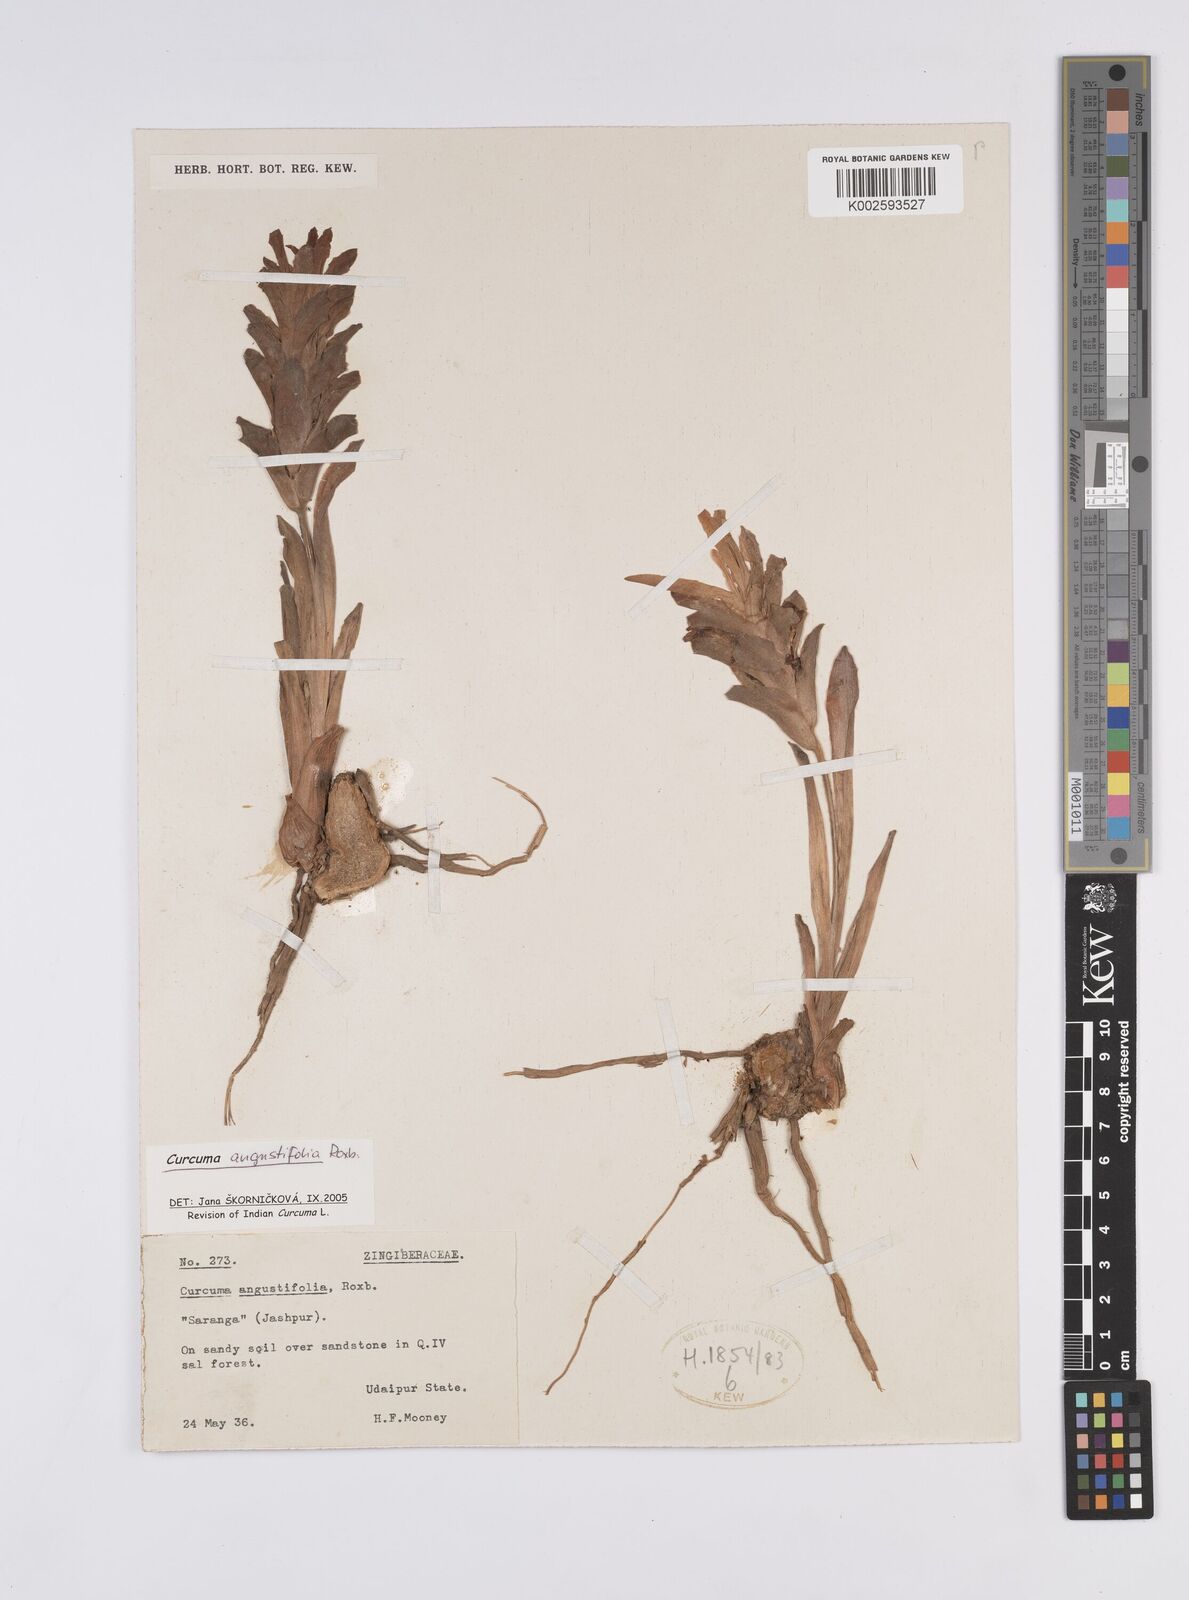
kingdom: Plantae
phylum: Tracheophyta
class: Liliopsida
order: Zingiberales
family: Zingiberaceae
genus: Curcuma
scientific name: Curcuma angustifolia
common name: East indian arrowroot
